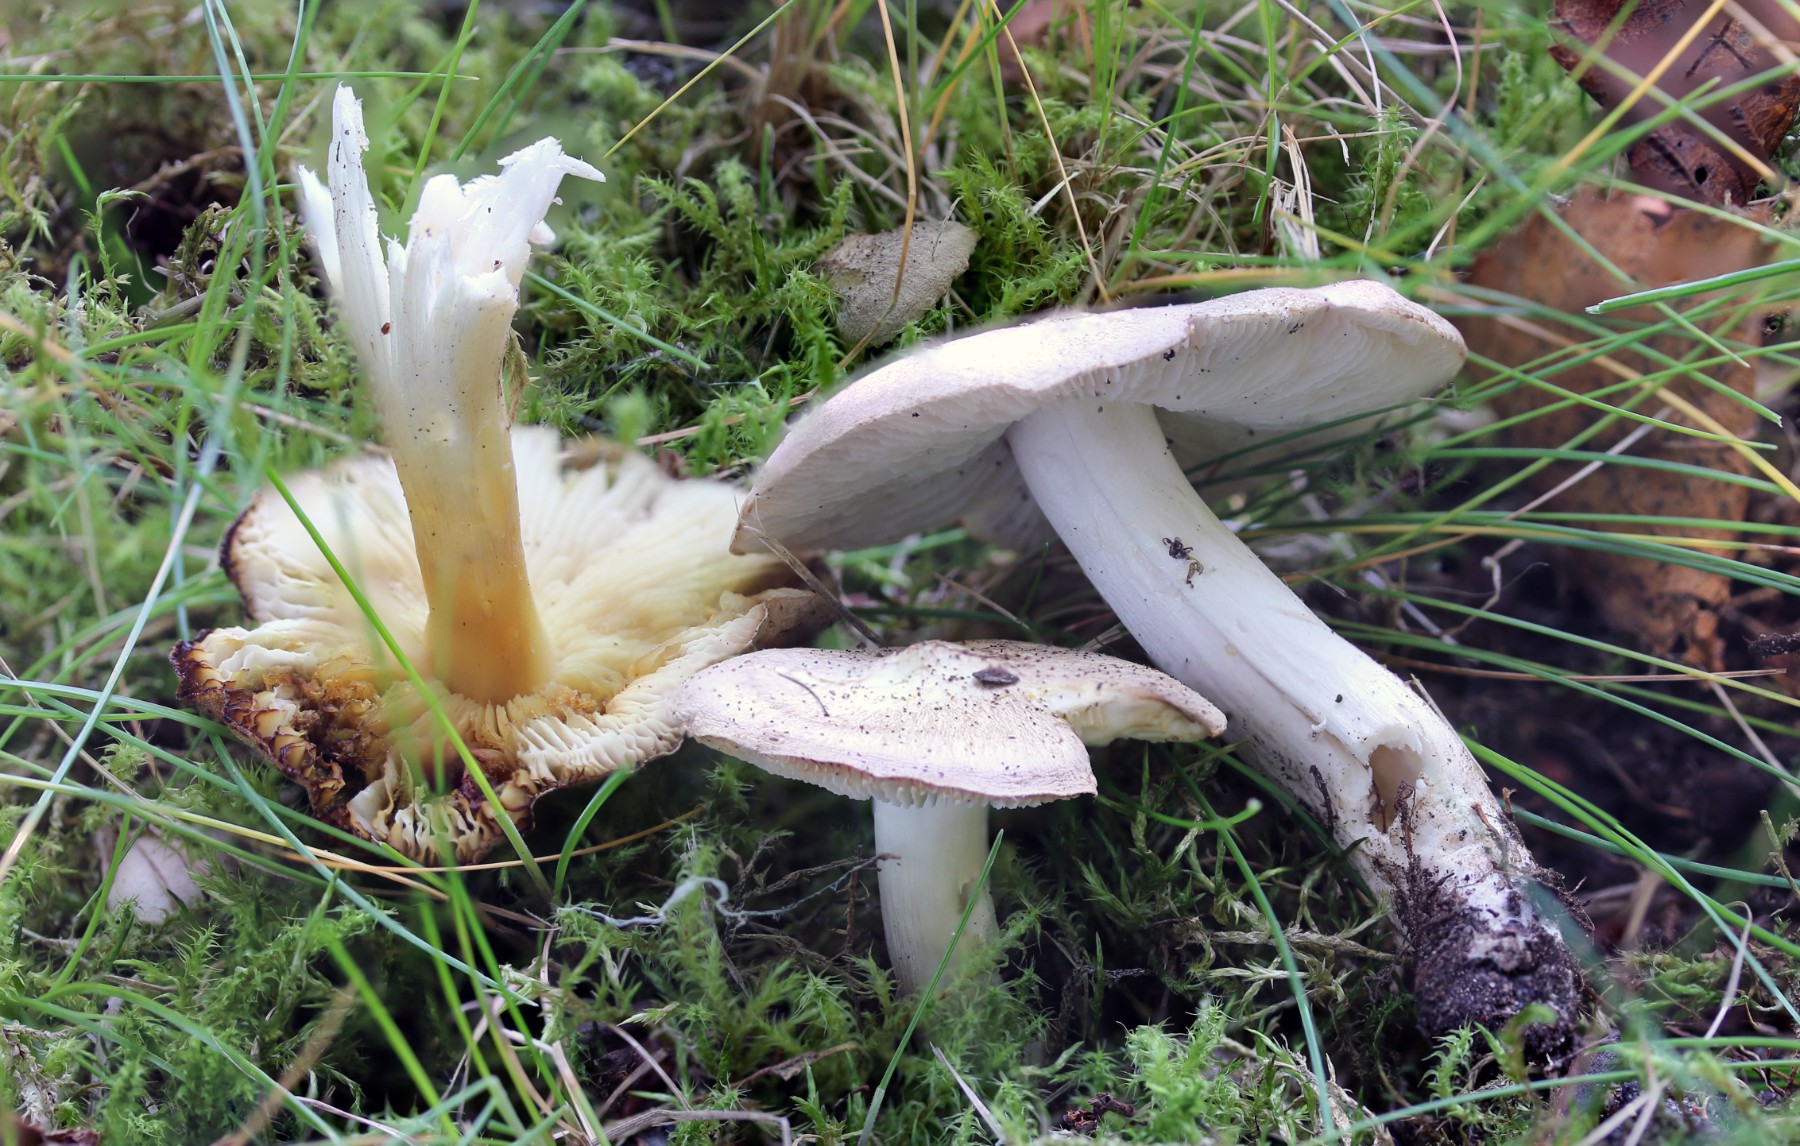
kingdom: Fungi
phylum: Basidiomycota
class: Agaricomycetes
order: Agaricales
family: Tricholomataceae
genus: Tricholoma
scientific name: Tricholoma scalpturatum
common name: gulplettet ridderhat
